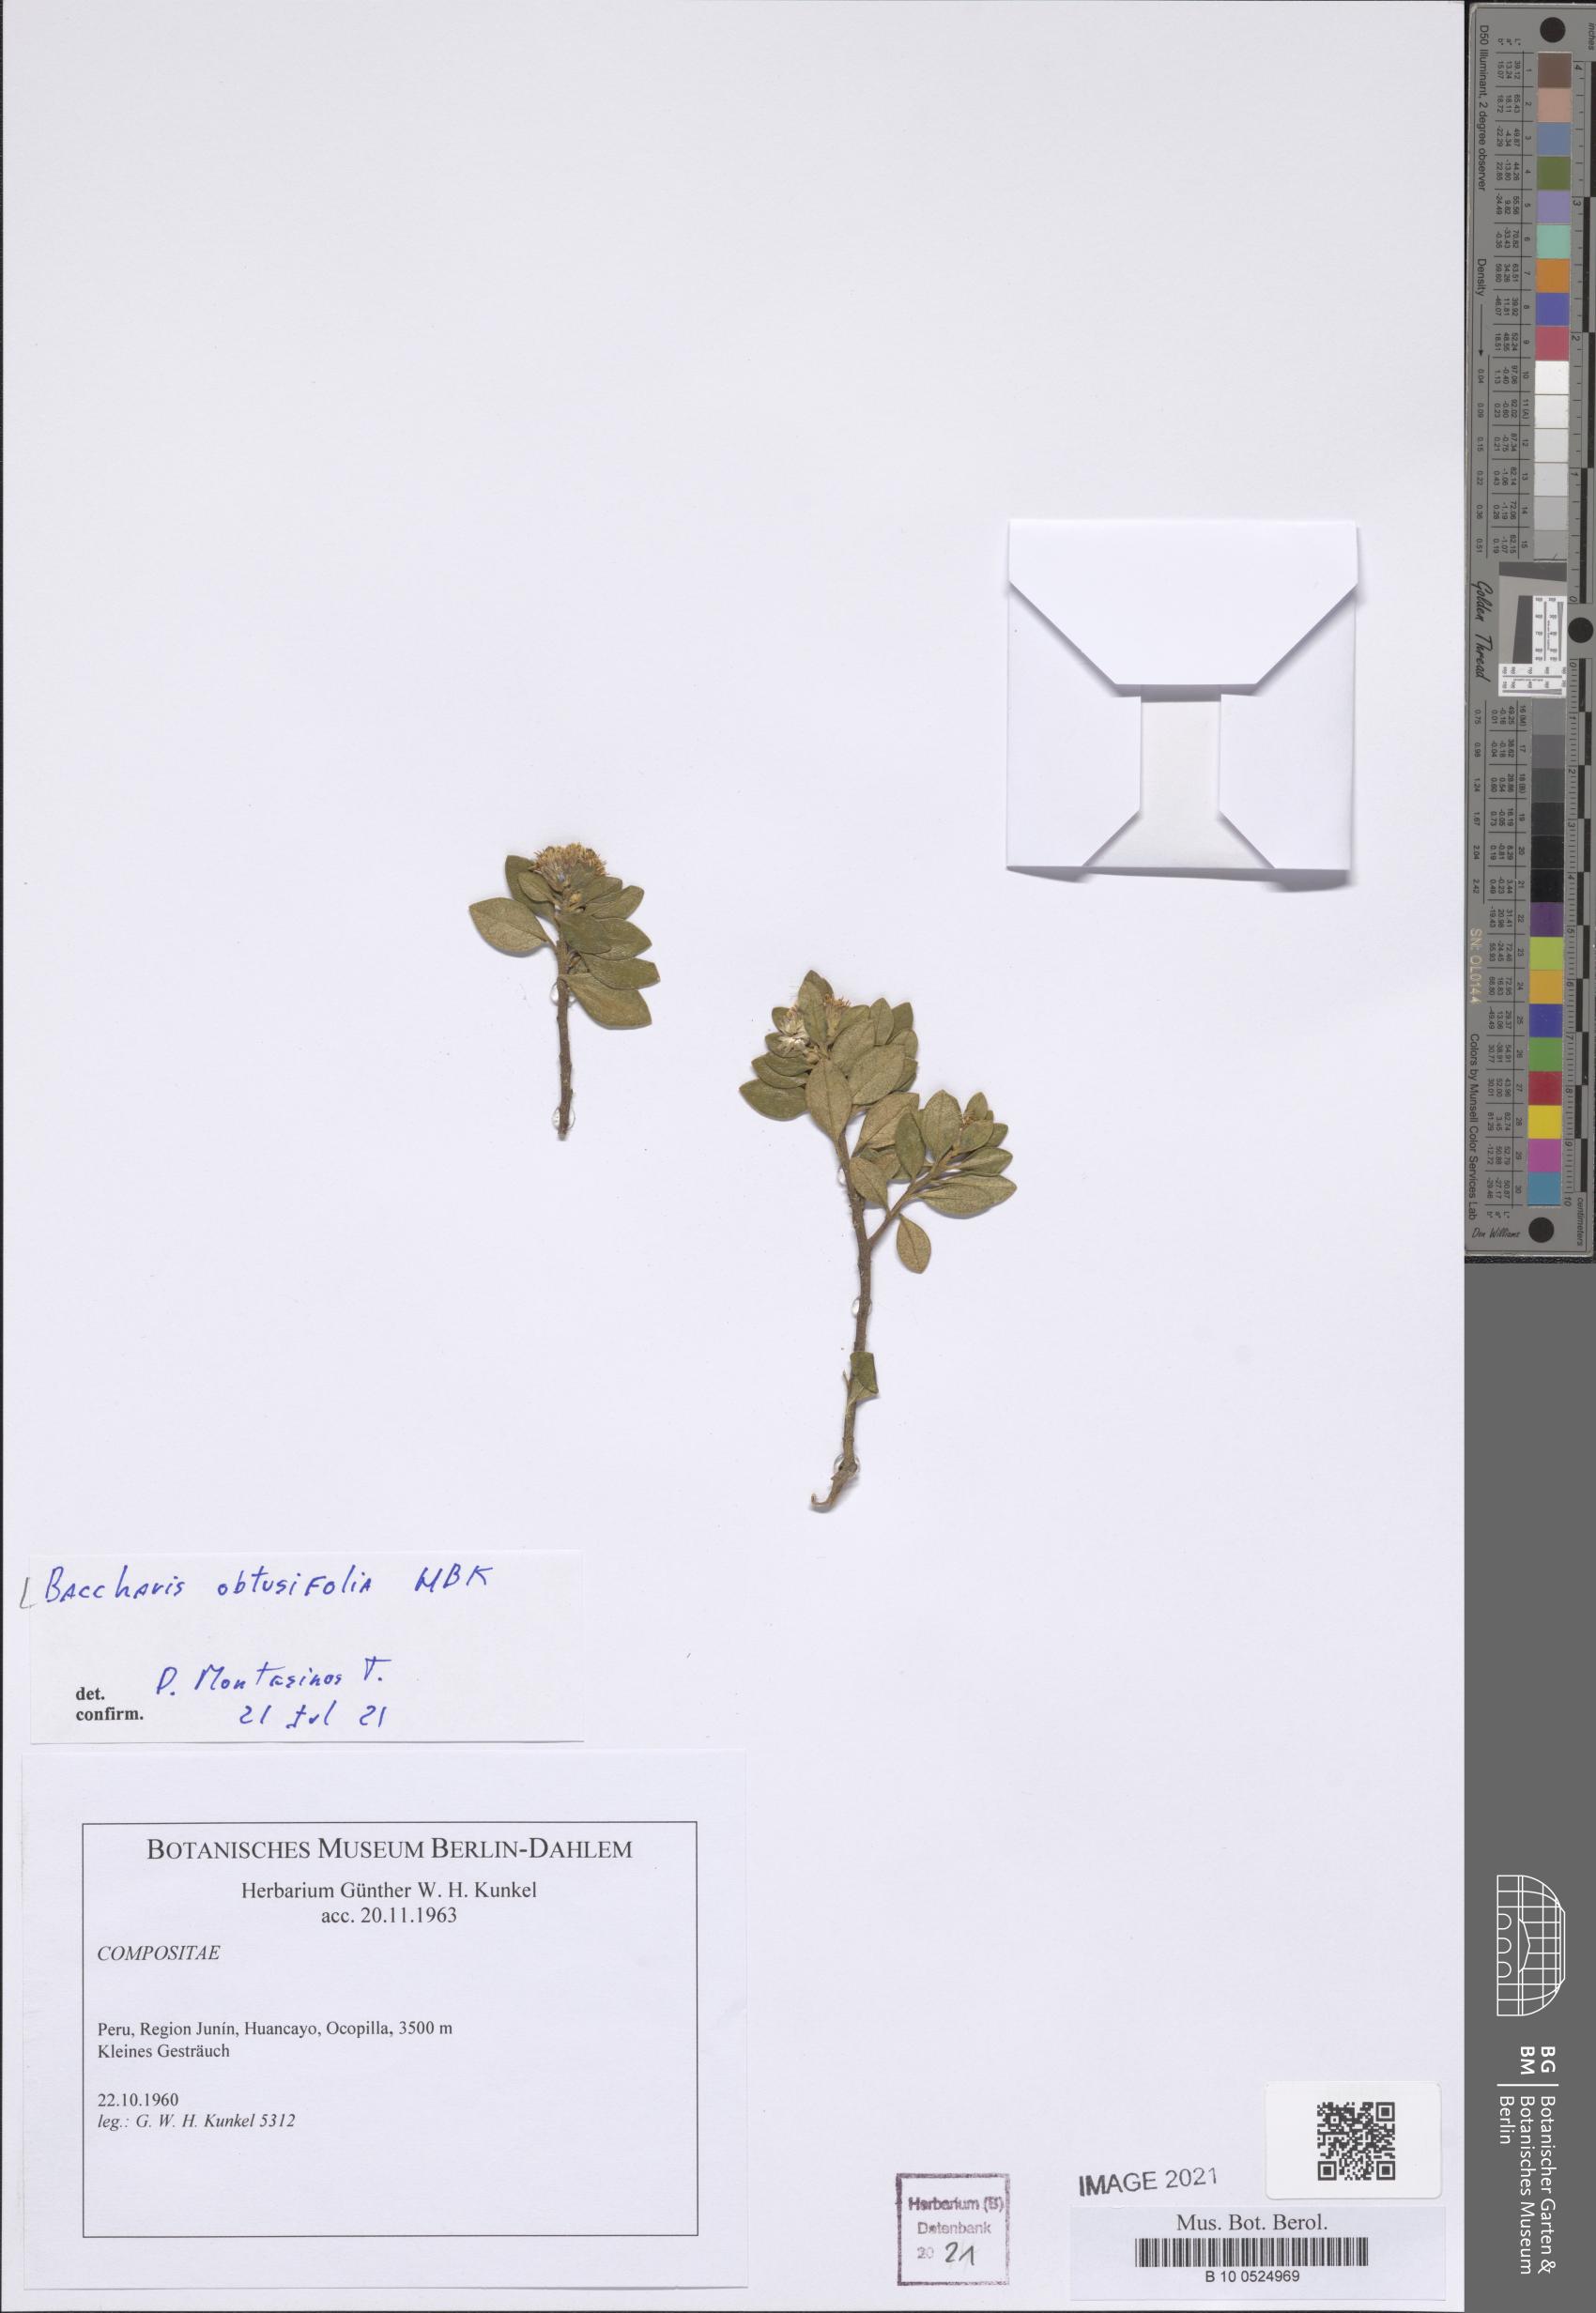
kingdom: Plantae
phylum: Tracheophyta
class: Magnoliopsida
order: Asterales
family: Asteraceae
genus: Baccharis
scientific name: Baccharis obtusifolia
